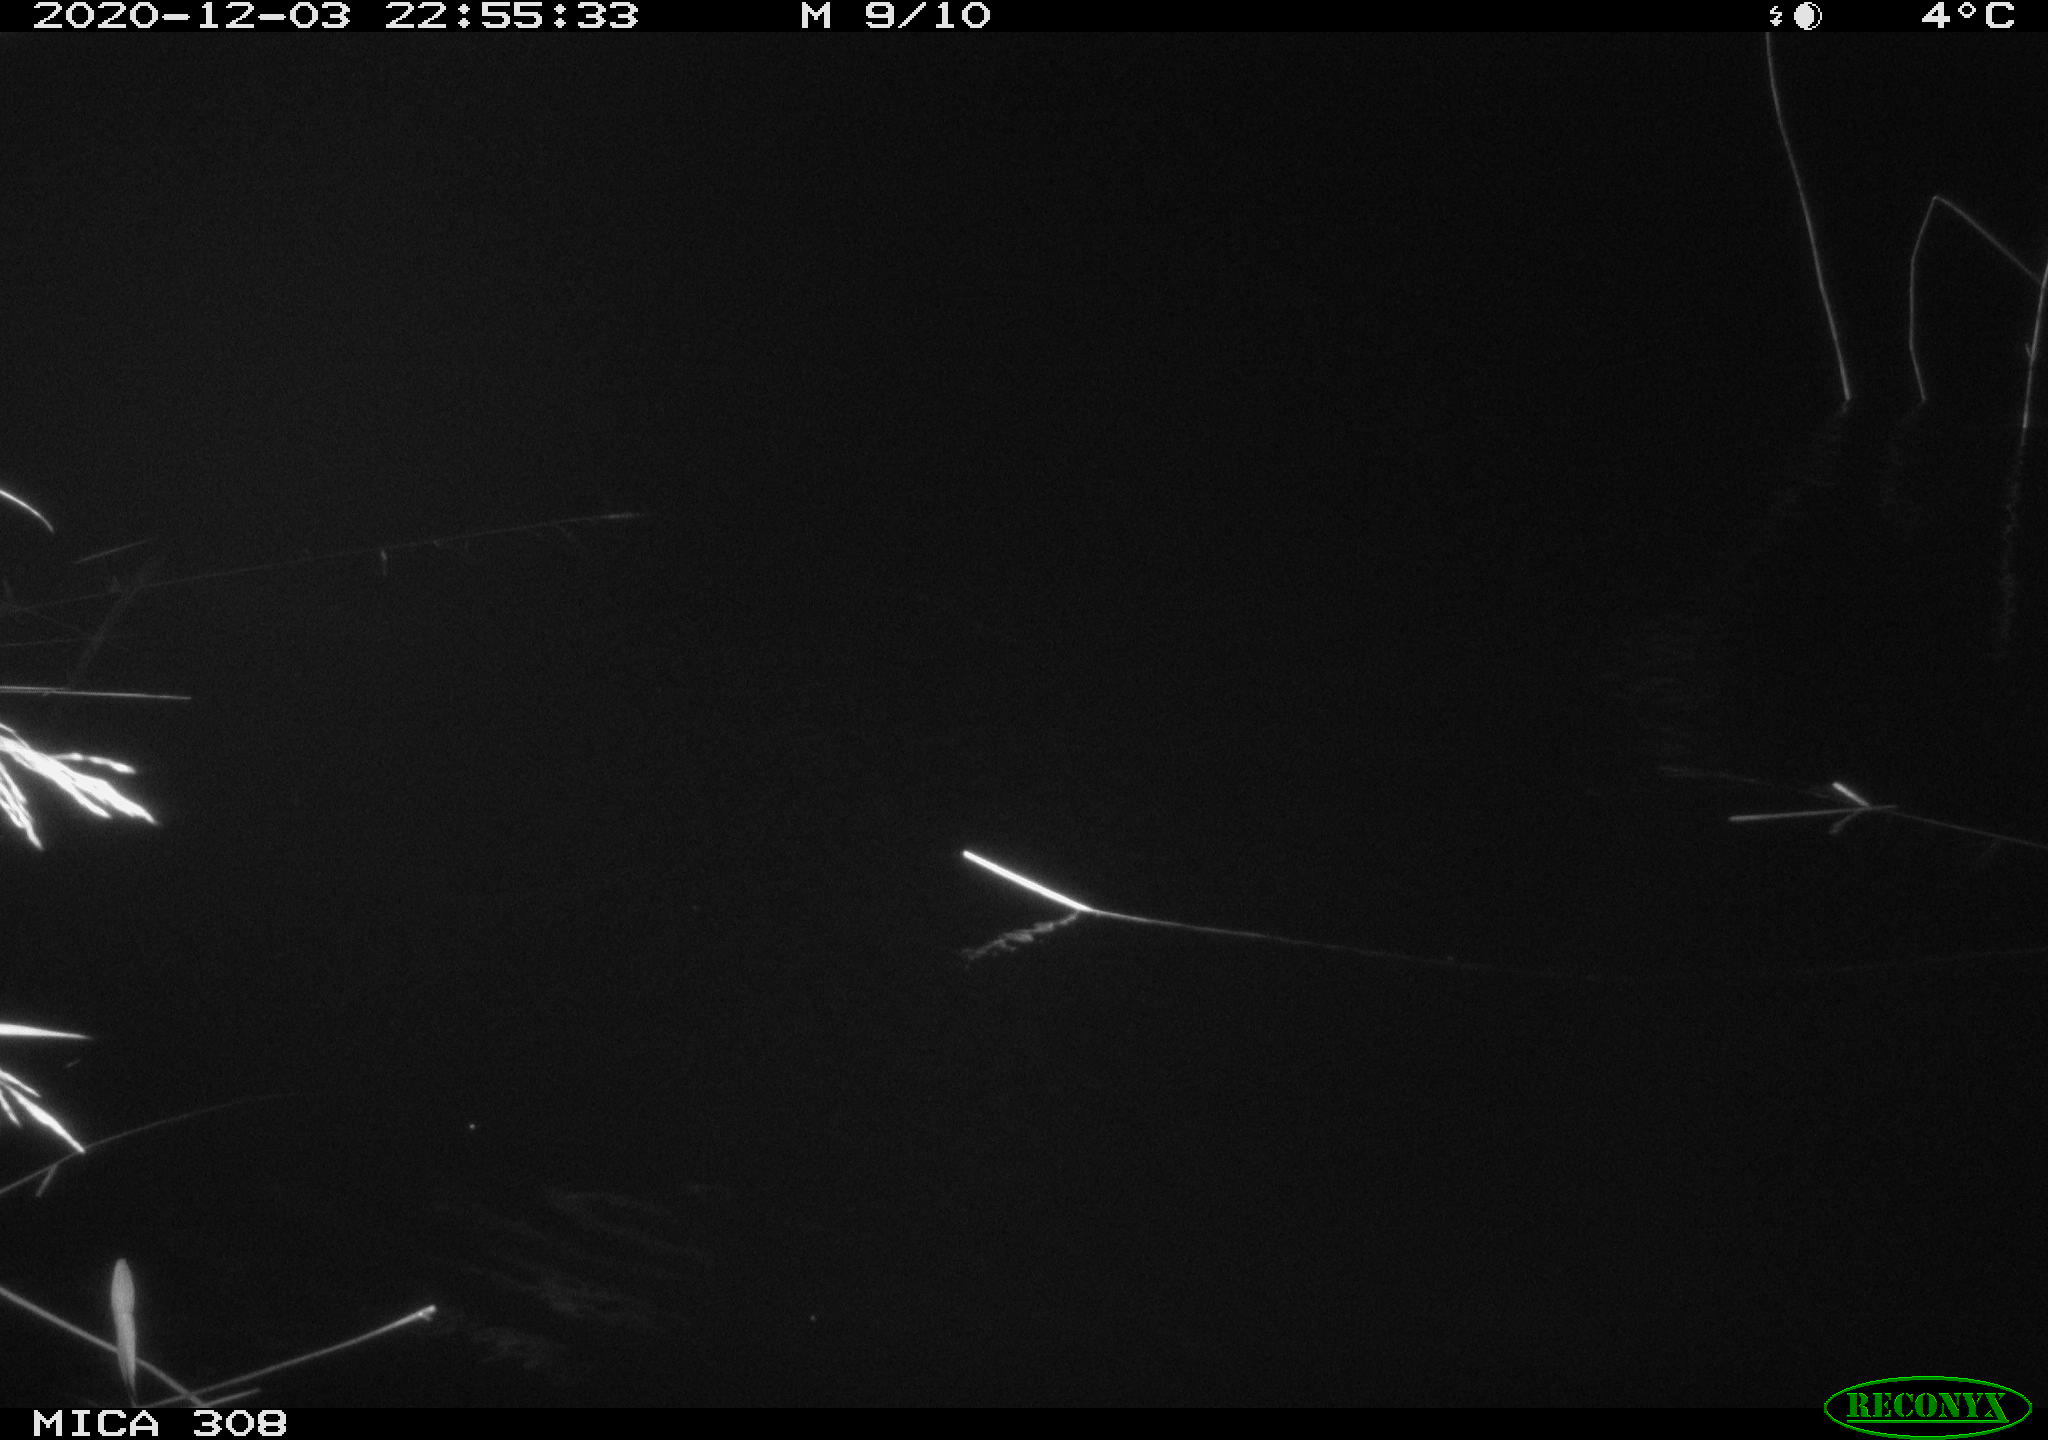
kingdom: Animalia
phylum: Chordata
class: Mammalia
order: Rodentia
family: Muridae
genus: Rattus
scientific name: Rattus norvegicus
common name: Brown rat
